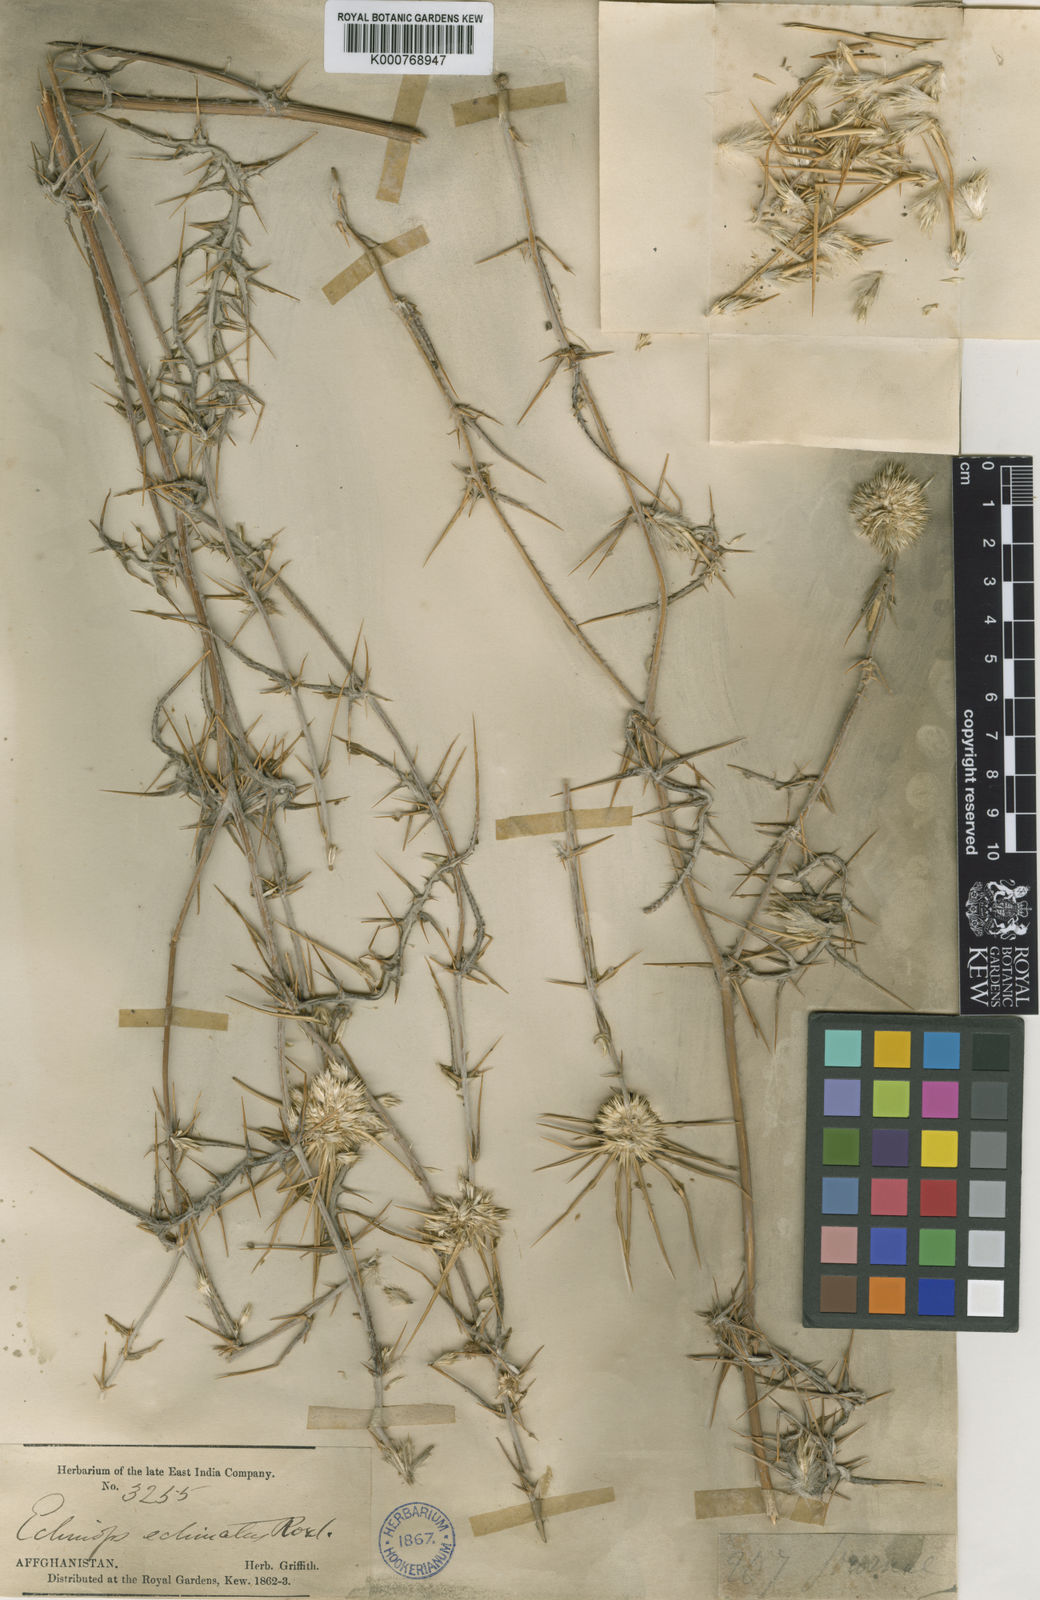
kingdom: Plantae
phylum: Tracheophyta
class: Magnoliopsida
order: Asterales
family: Asteraceae
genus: Echinops
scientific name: Echinops paradoxus
